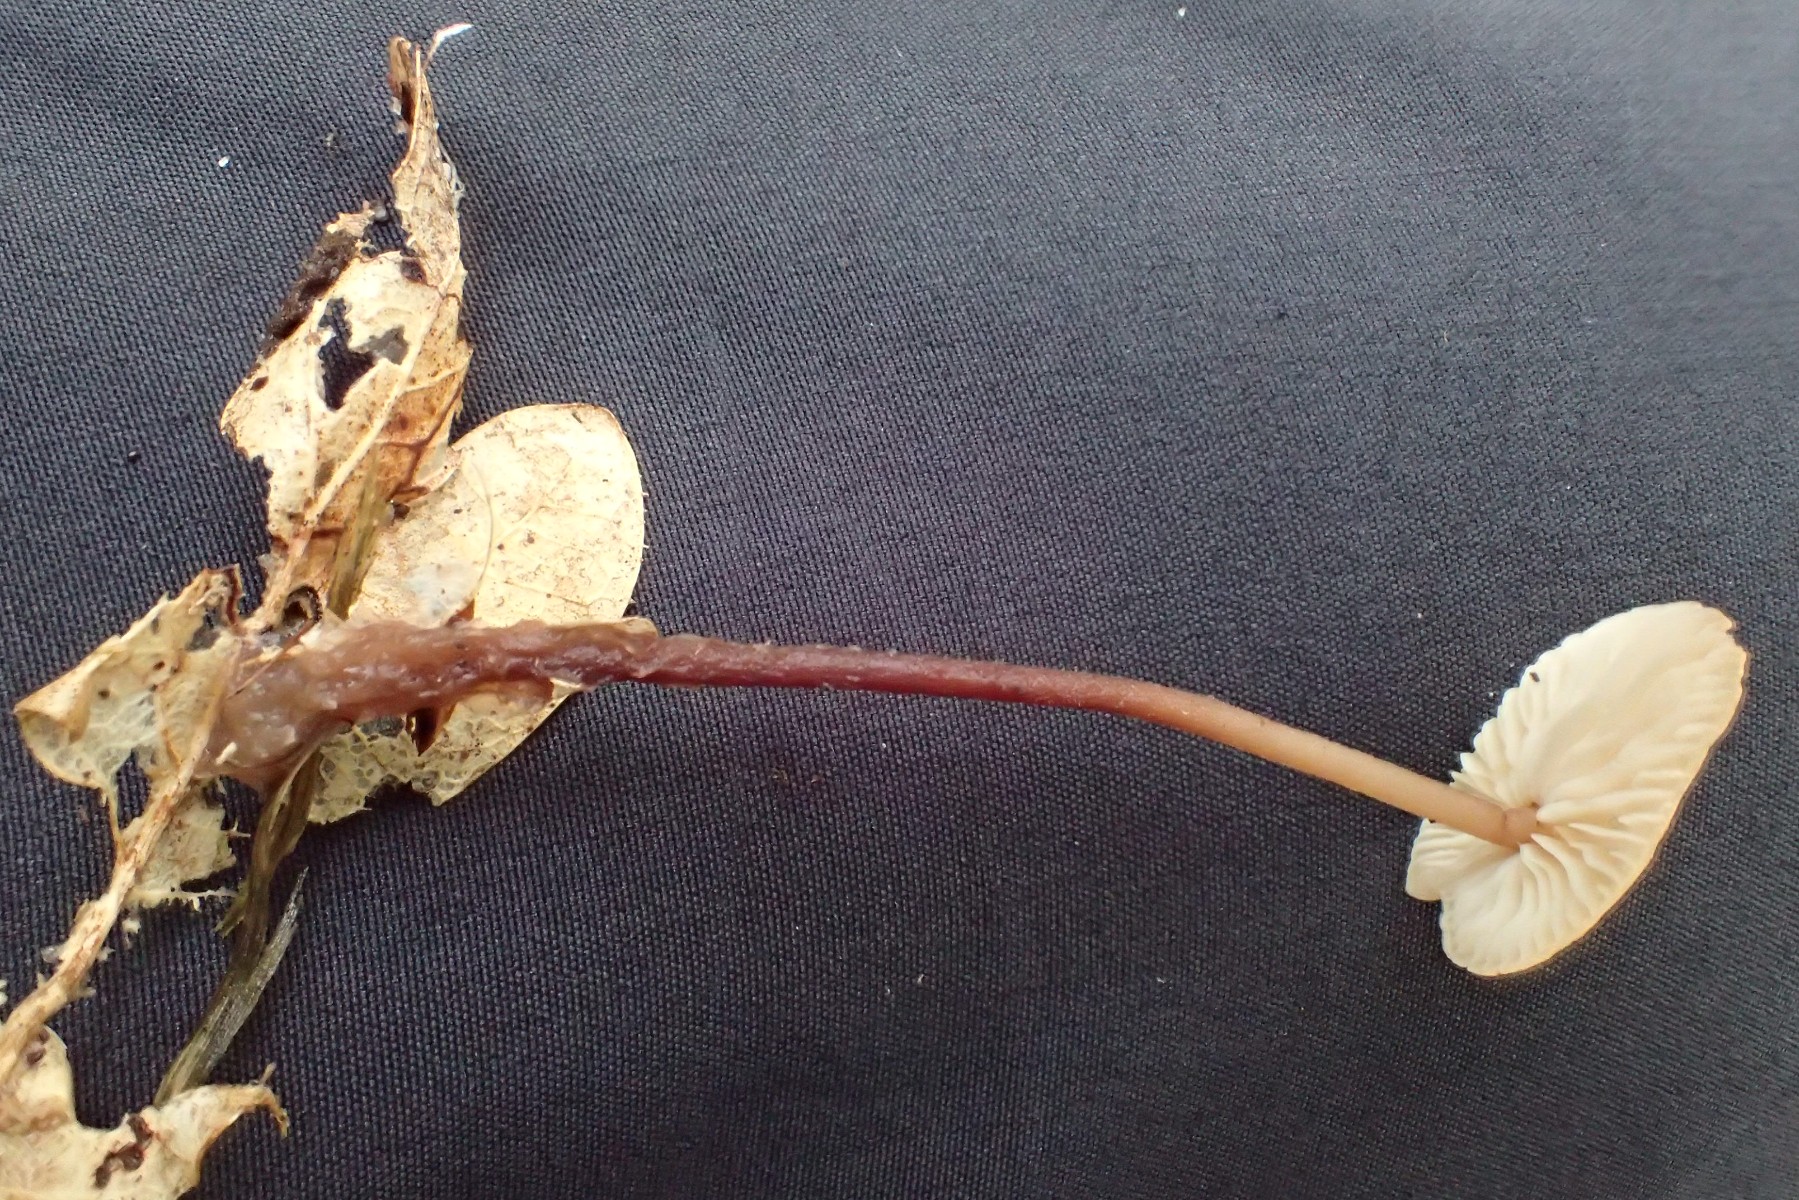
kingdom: Fungi
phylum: Basidiomycota
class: Agaricomycetes
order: Agaricales
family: Omphalotaceae
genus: Mycetinis
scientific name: Mycetinis querceus
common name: ege-løghat
